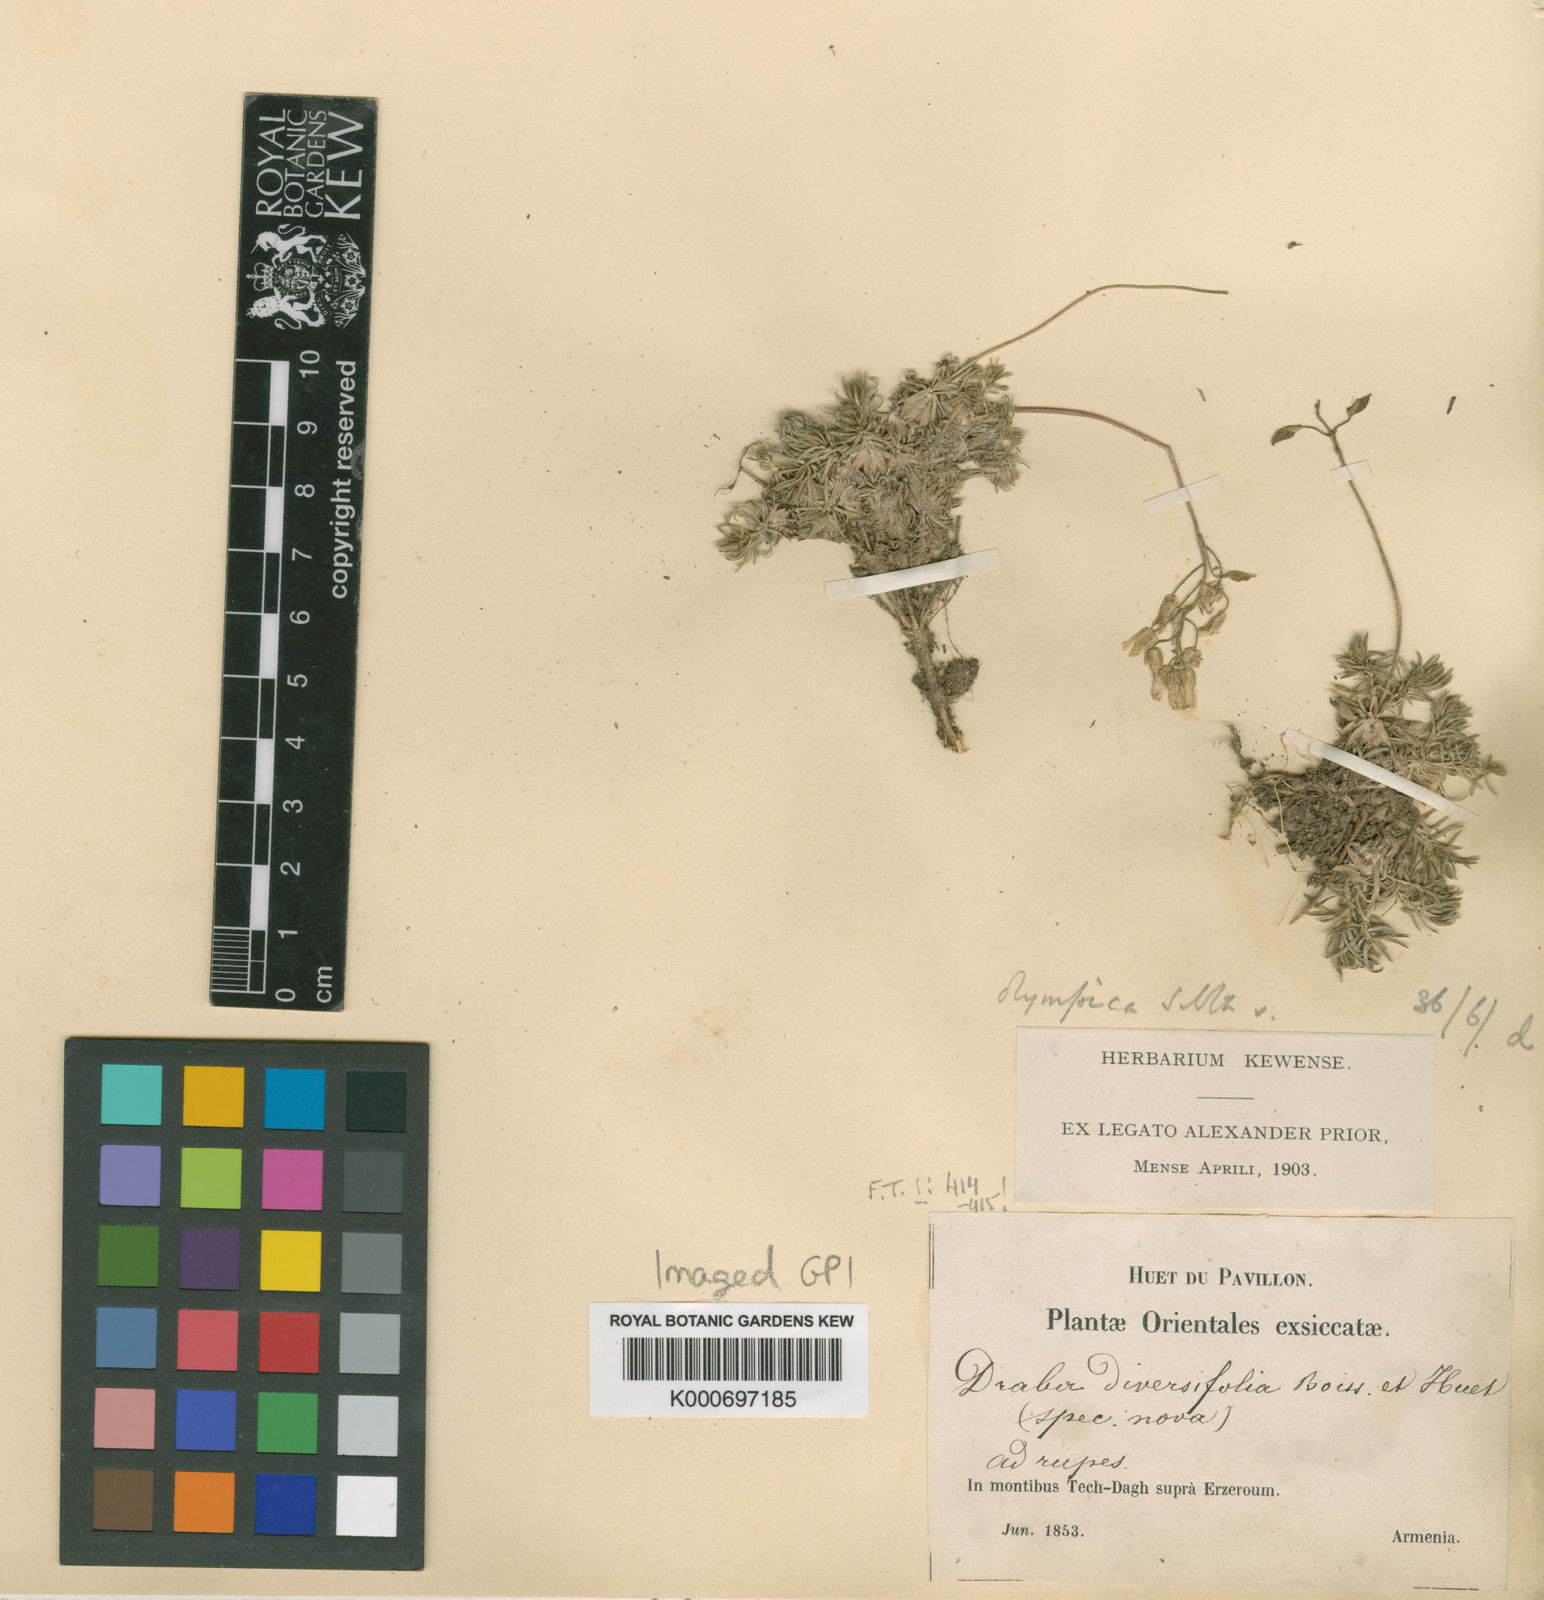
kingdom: Plantae
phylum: Tracheophyta
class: Magnoliopsida
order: Brassicales
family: Brassicaceae
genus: Draba
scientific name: Draba bruniifolia
